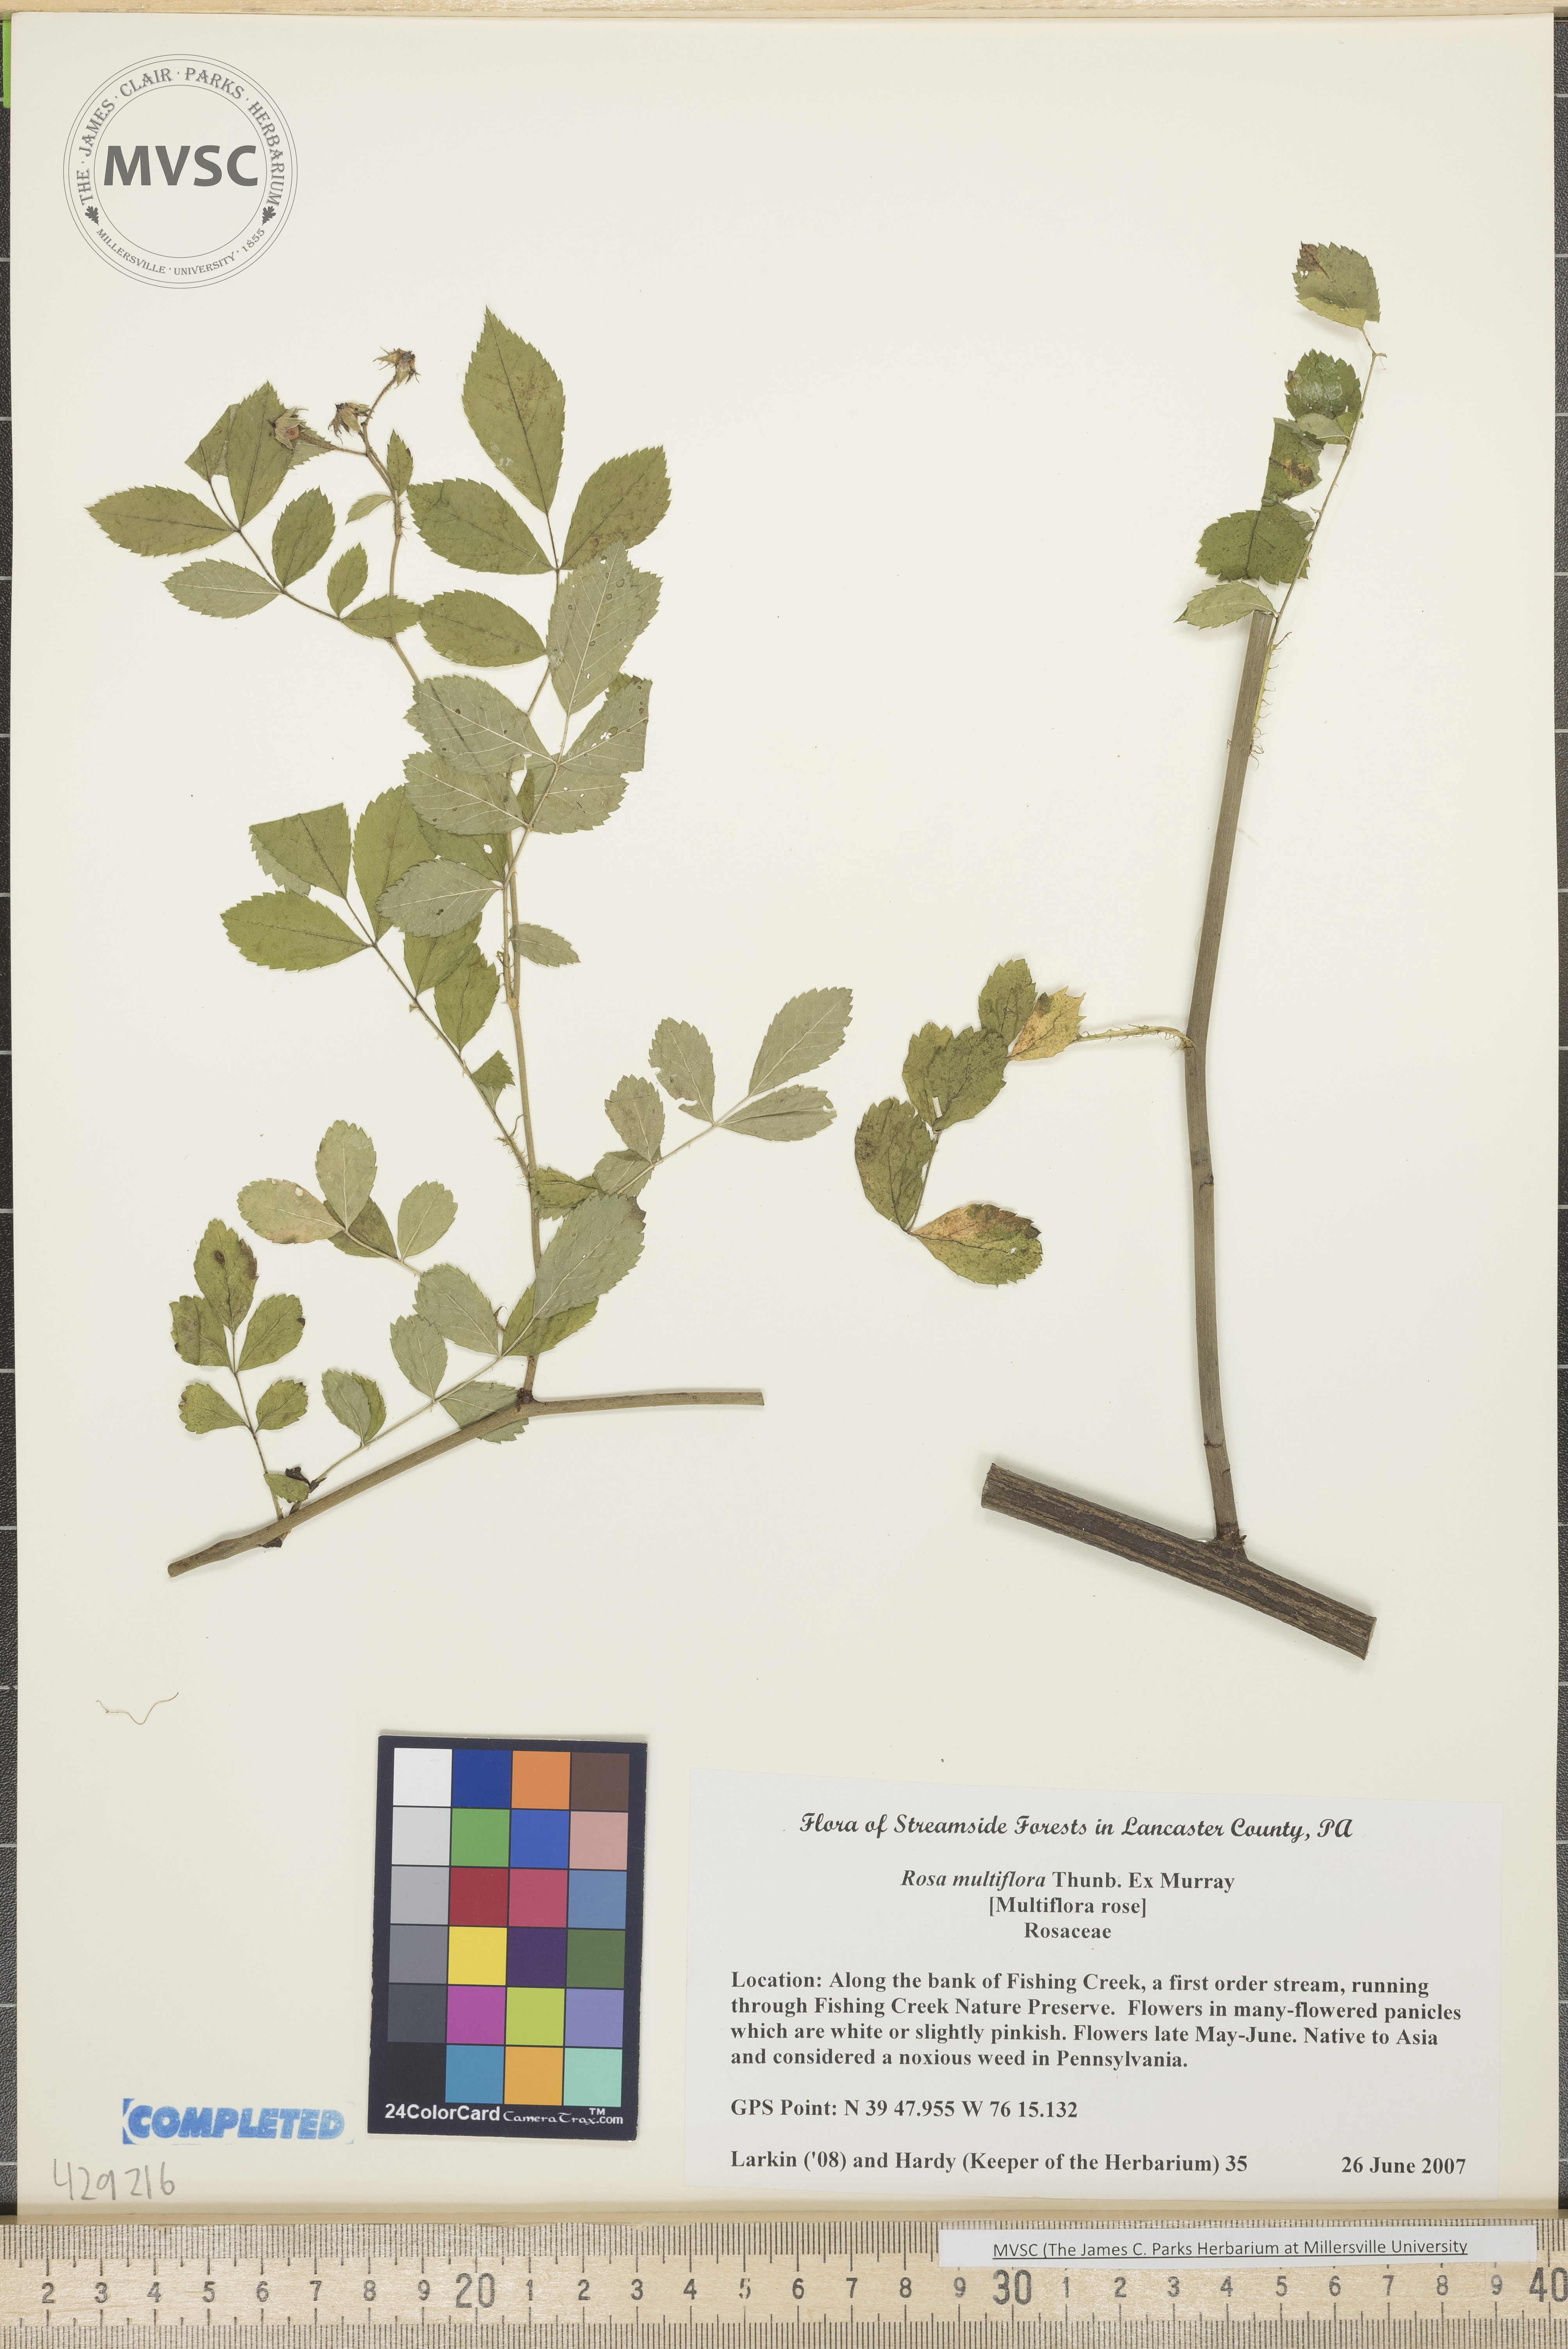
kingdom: Plantae
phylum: Tracheophyta
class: Magnoliopsida
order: Rosales
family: Rosaceae
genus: Rosa
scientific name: Rosa multiflora
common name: Multiflora rose
